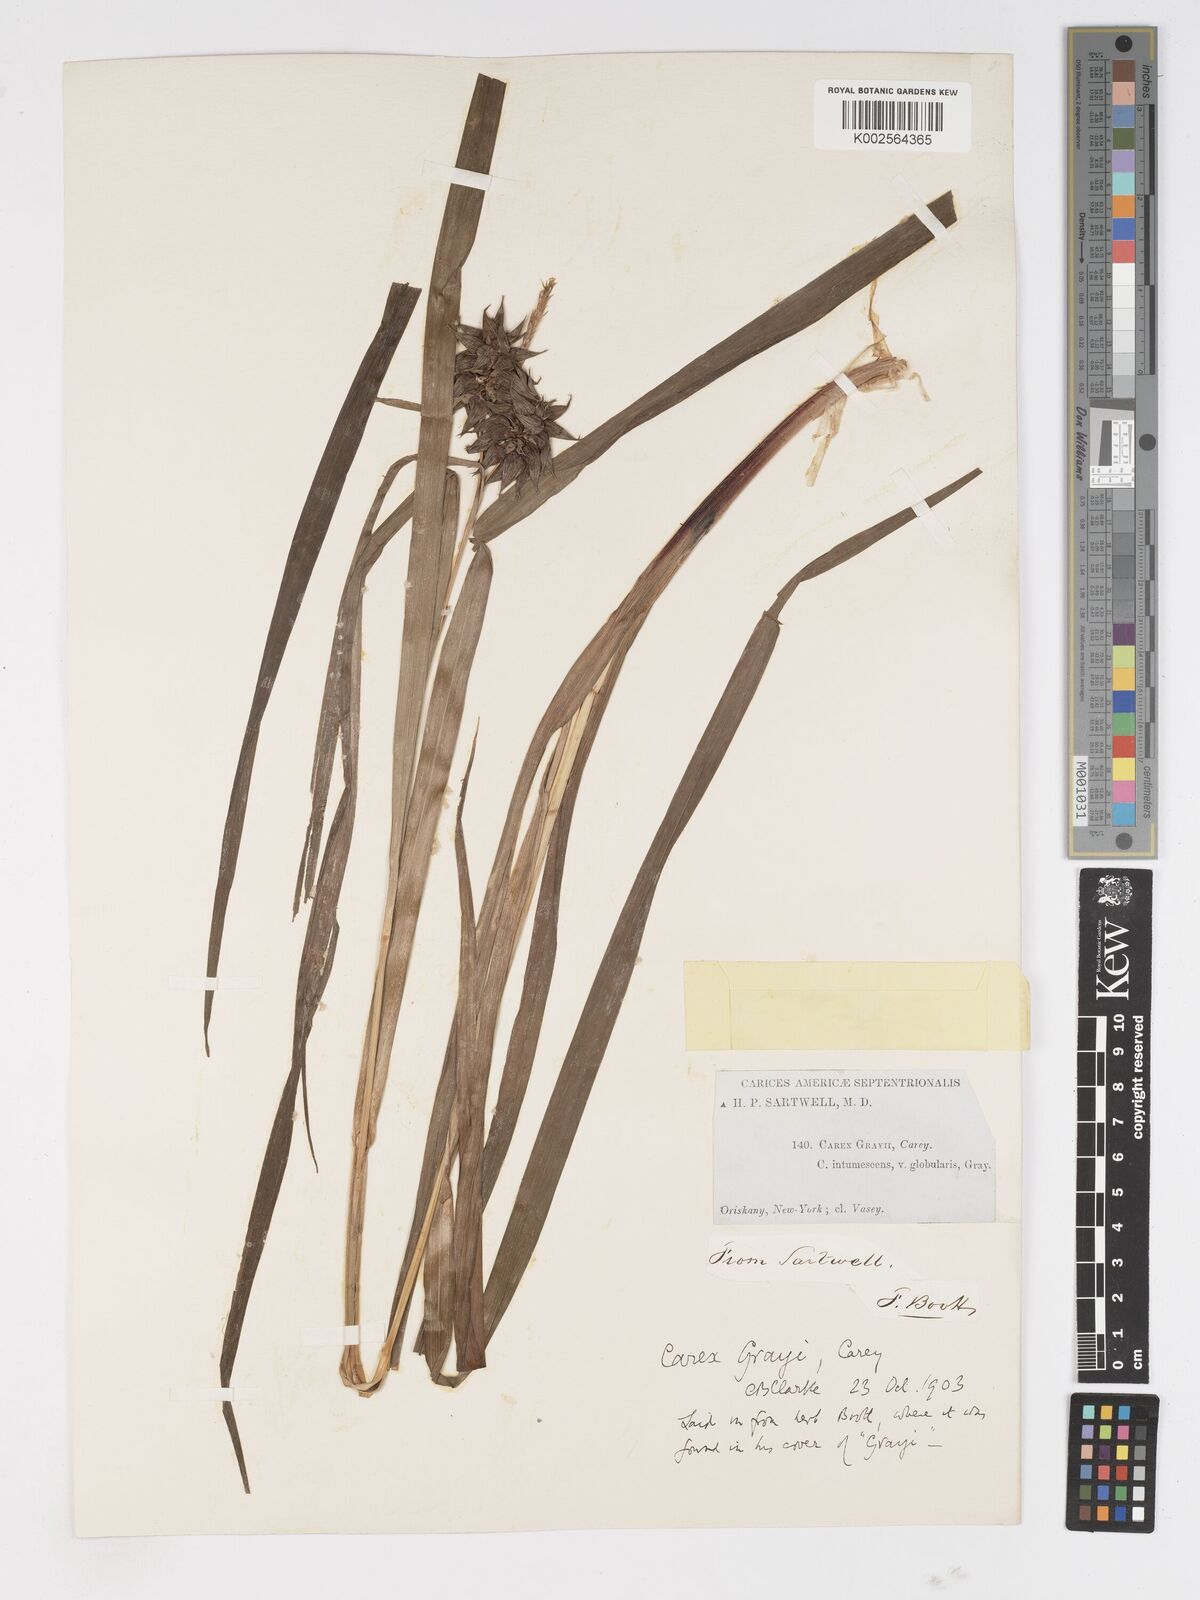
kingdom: Plantae
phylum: Tracheophyta
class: Liliopsida
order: Poales
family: Cyperaceae
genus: Carex
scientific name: Carex grayi
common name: Asa gray's sedge
